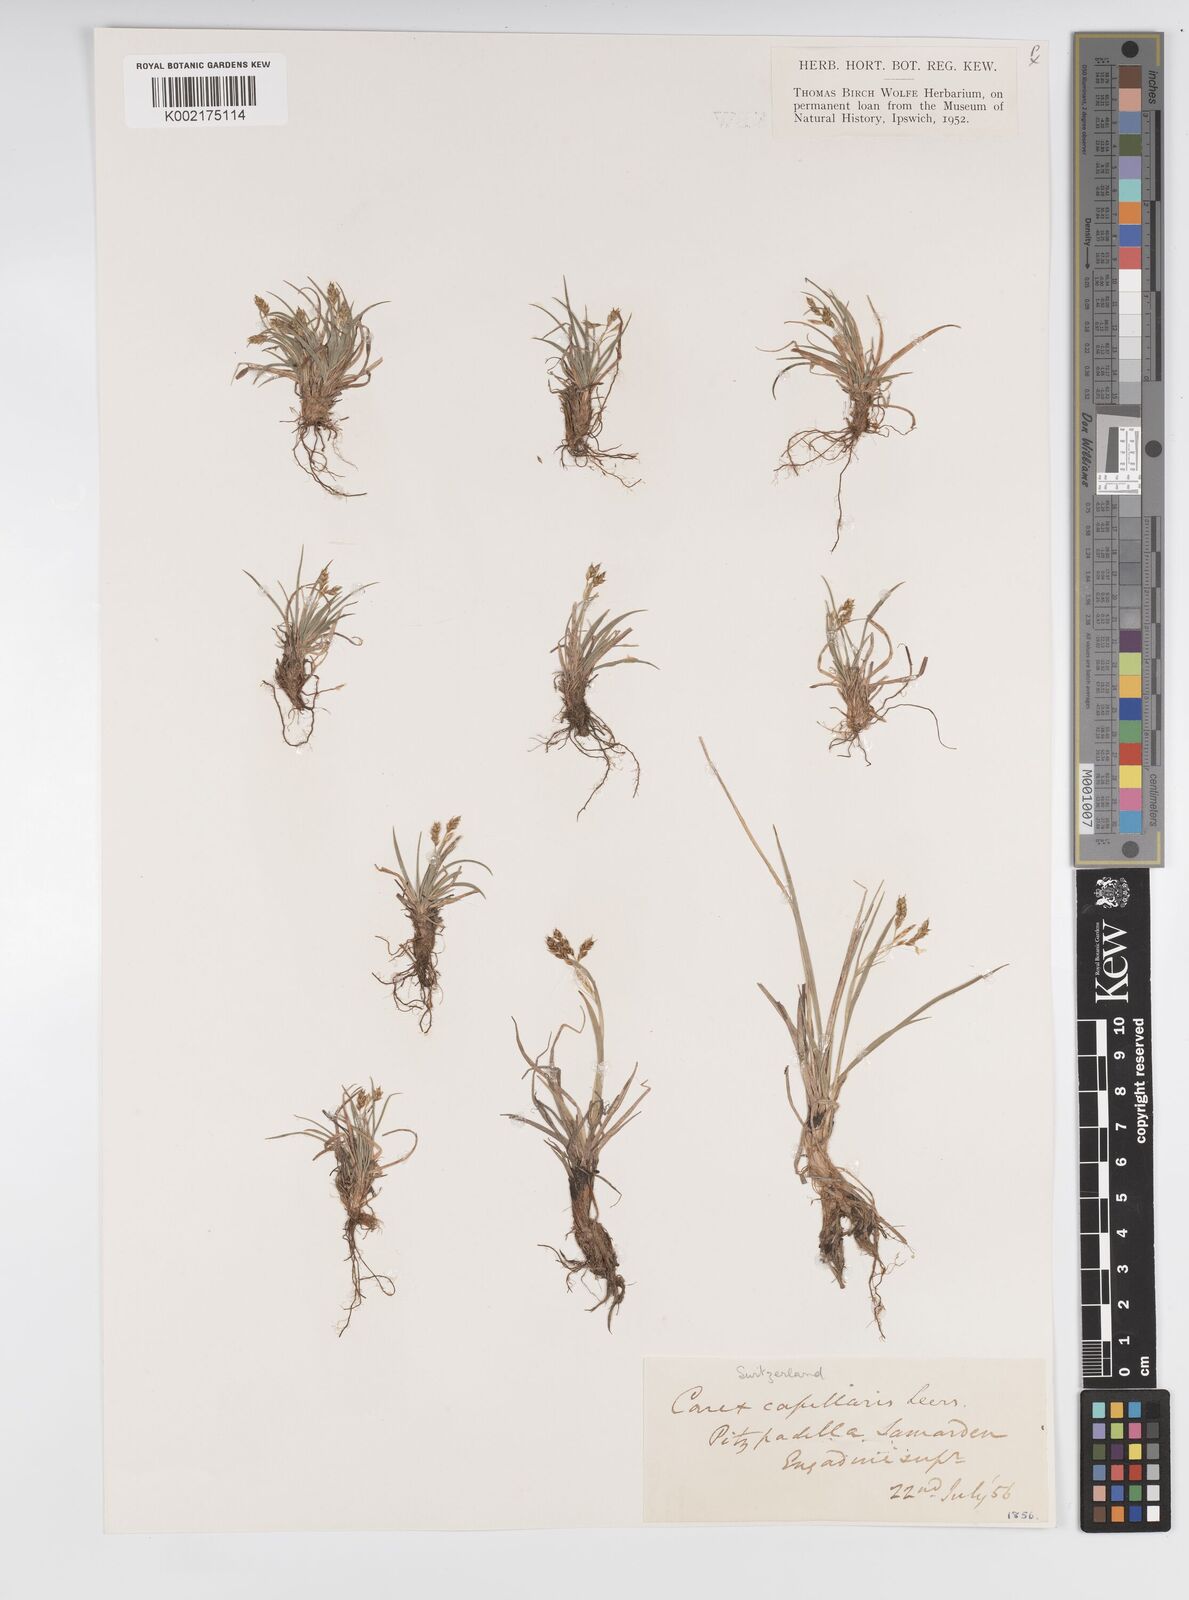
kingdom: Plantae
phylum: Tracheophyta
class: Liliopsida
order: Poales
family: Cyperaceae
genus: Carex
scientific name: Carex capillaris
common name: Hair sedge
